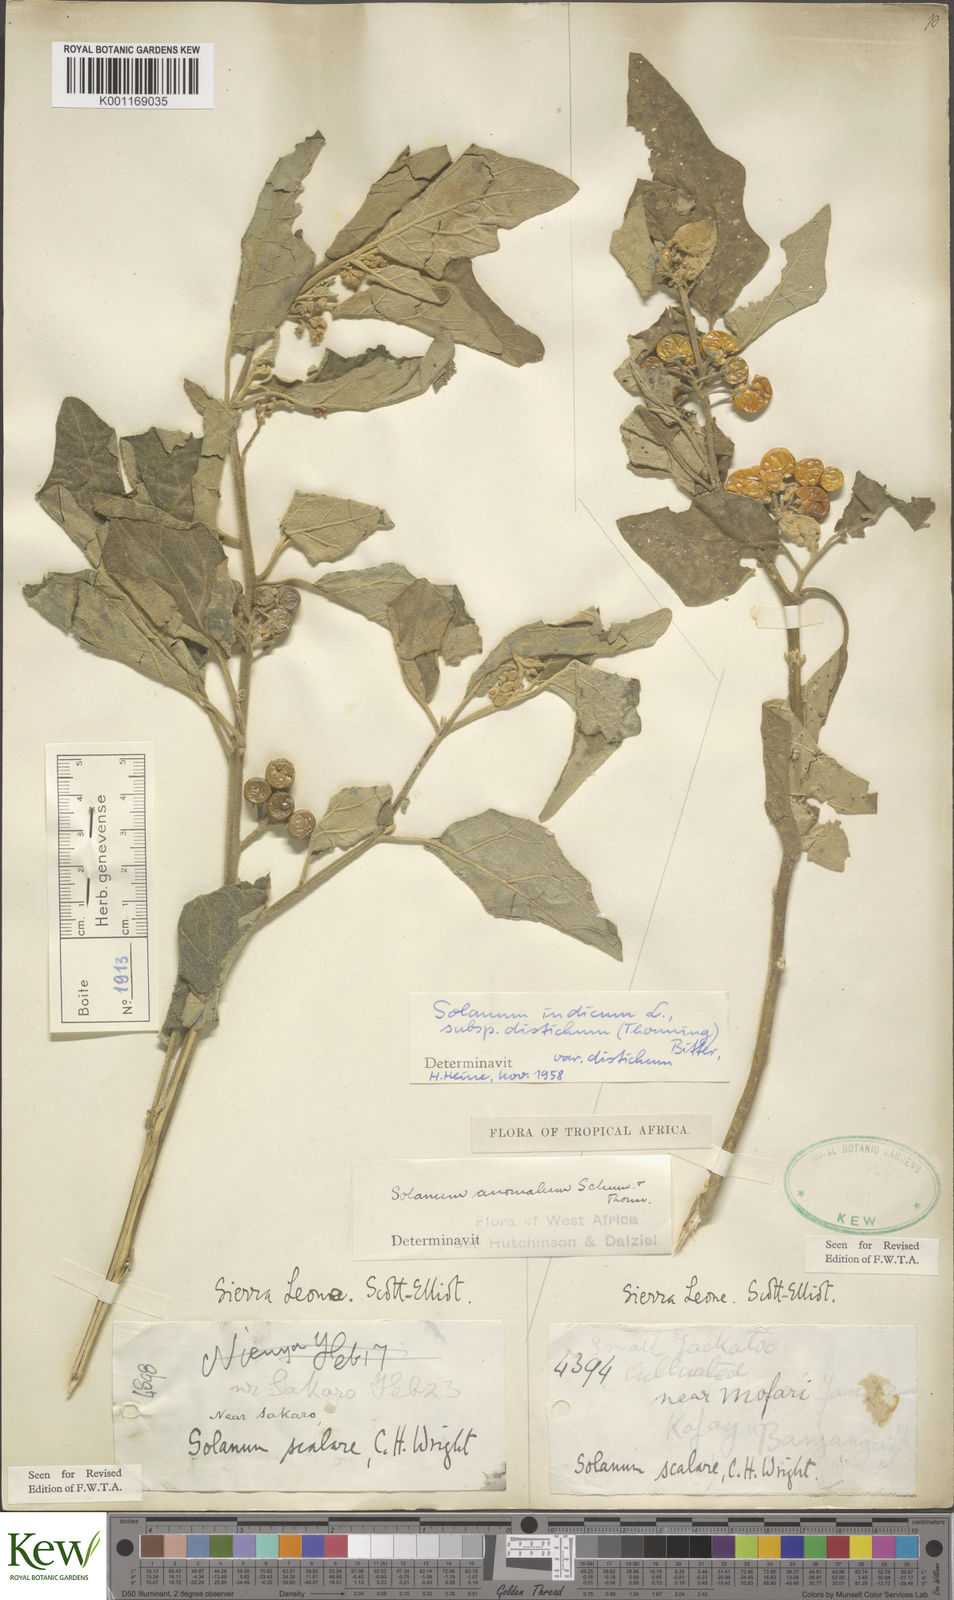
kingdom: Plantae
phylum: Tracheophyta
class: Magnoliopsida
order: Solanales
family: Solanaceae
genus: Solanum
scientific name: Solanum anguivi
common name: Forest bitterberry
